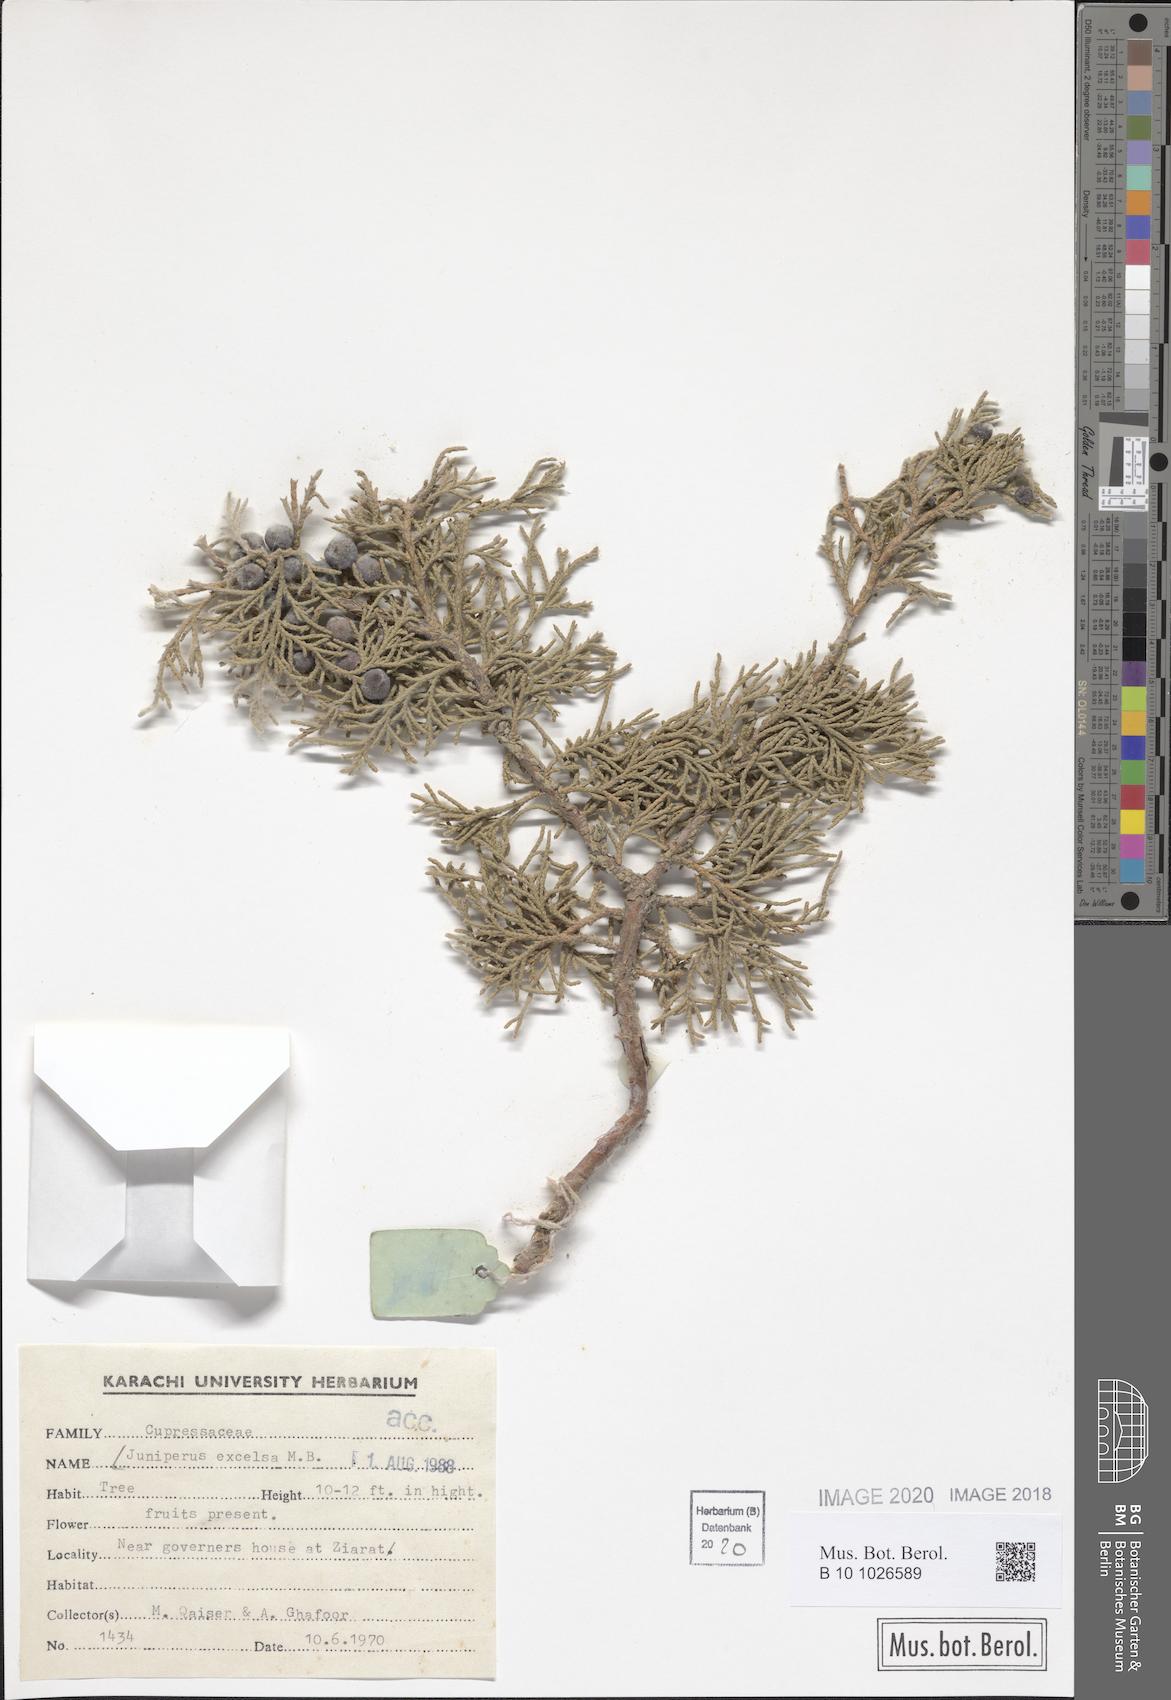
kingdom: Plantae
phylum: Tracheophyta
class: Pinopsida
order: Pinales
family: Cupressaceae
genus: Juniperus
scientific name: Juniperus excelsa
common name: Crimean juniper
